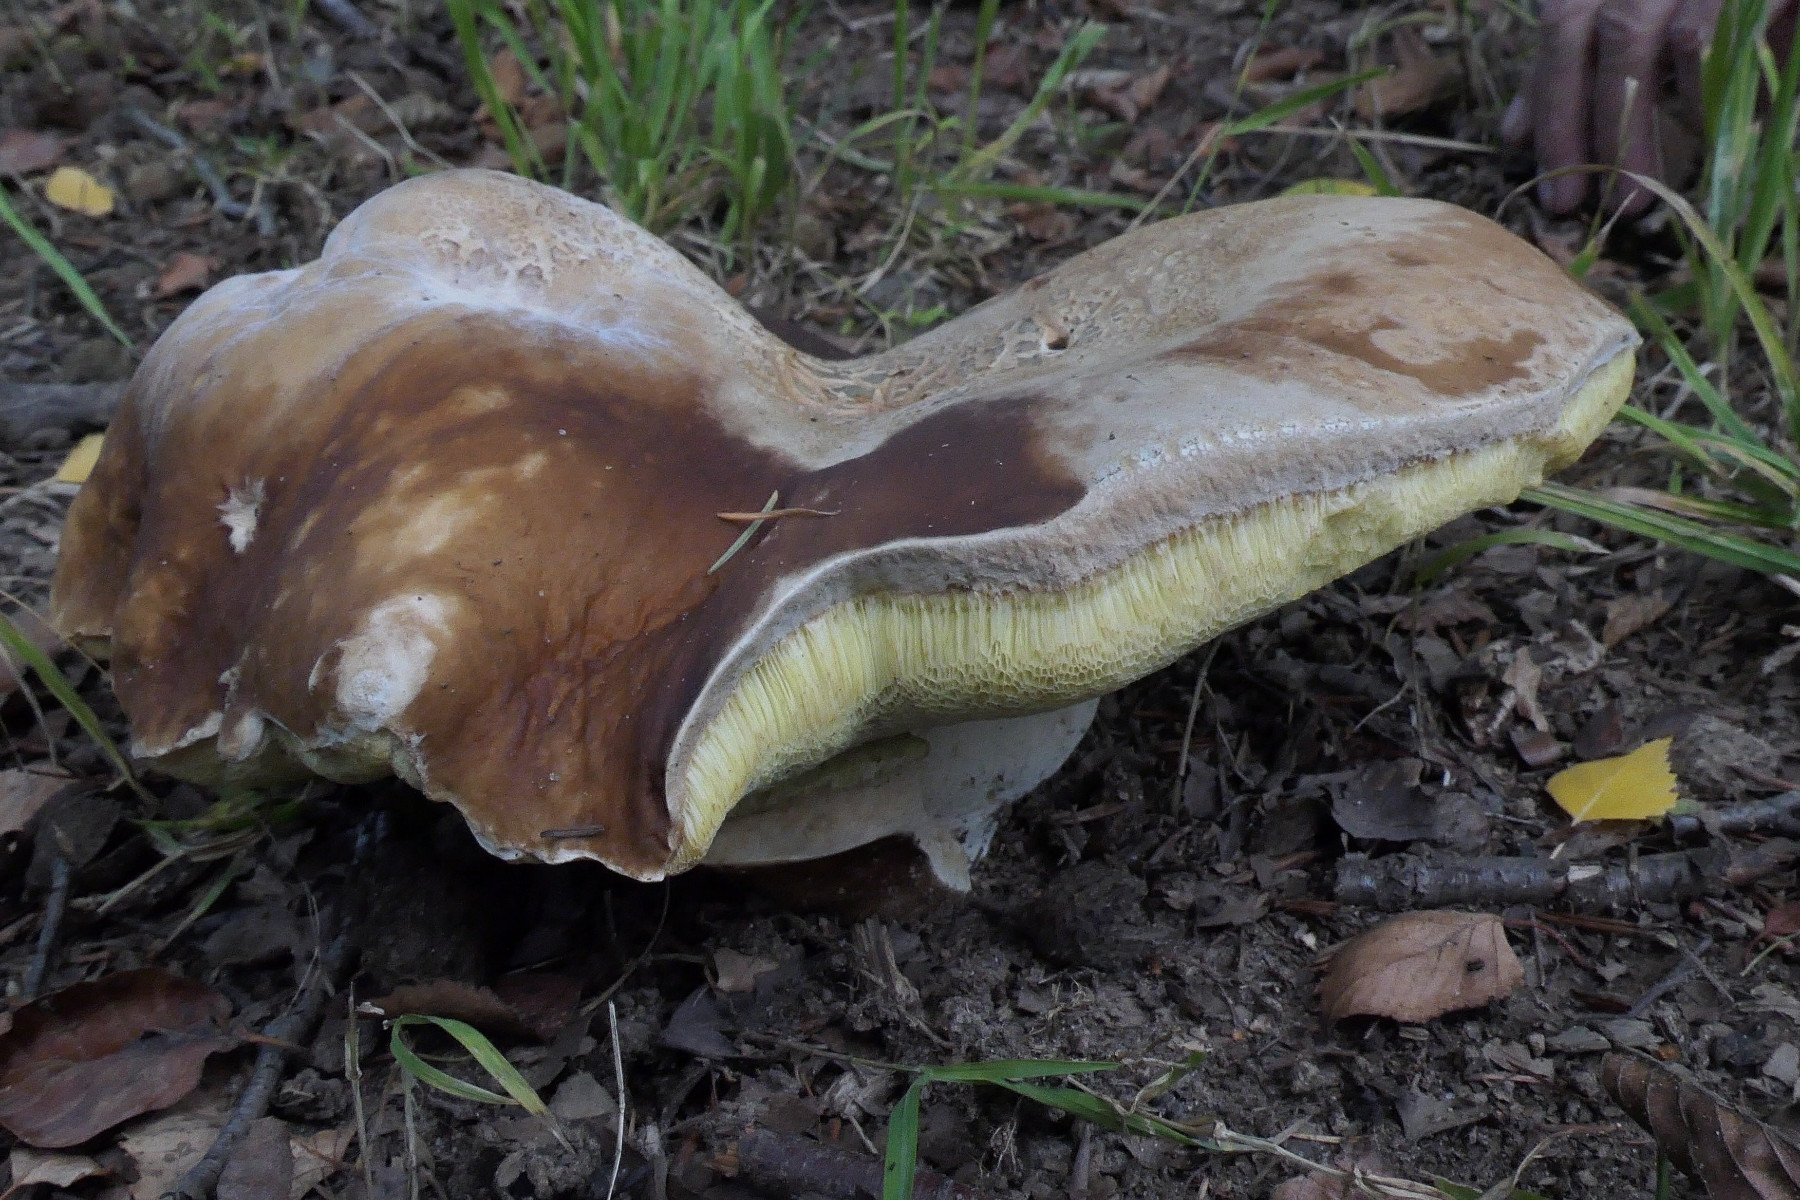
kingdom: Fungi
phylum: Basidiomycota
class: Agaricomycetes
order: Boletales
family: Boletaceae
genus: Boletus
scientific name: Boletus edulis
